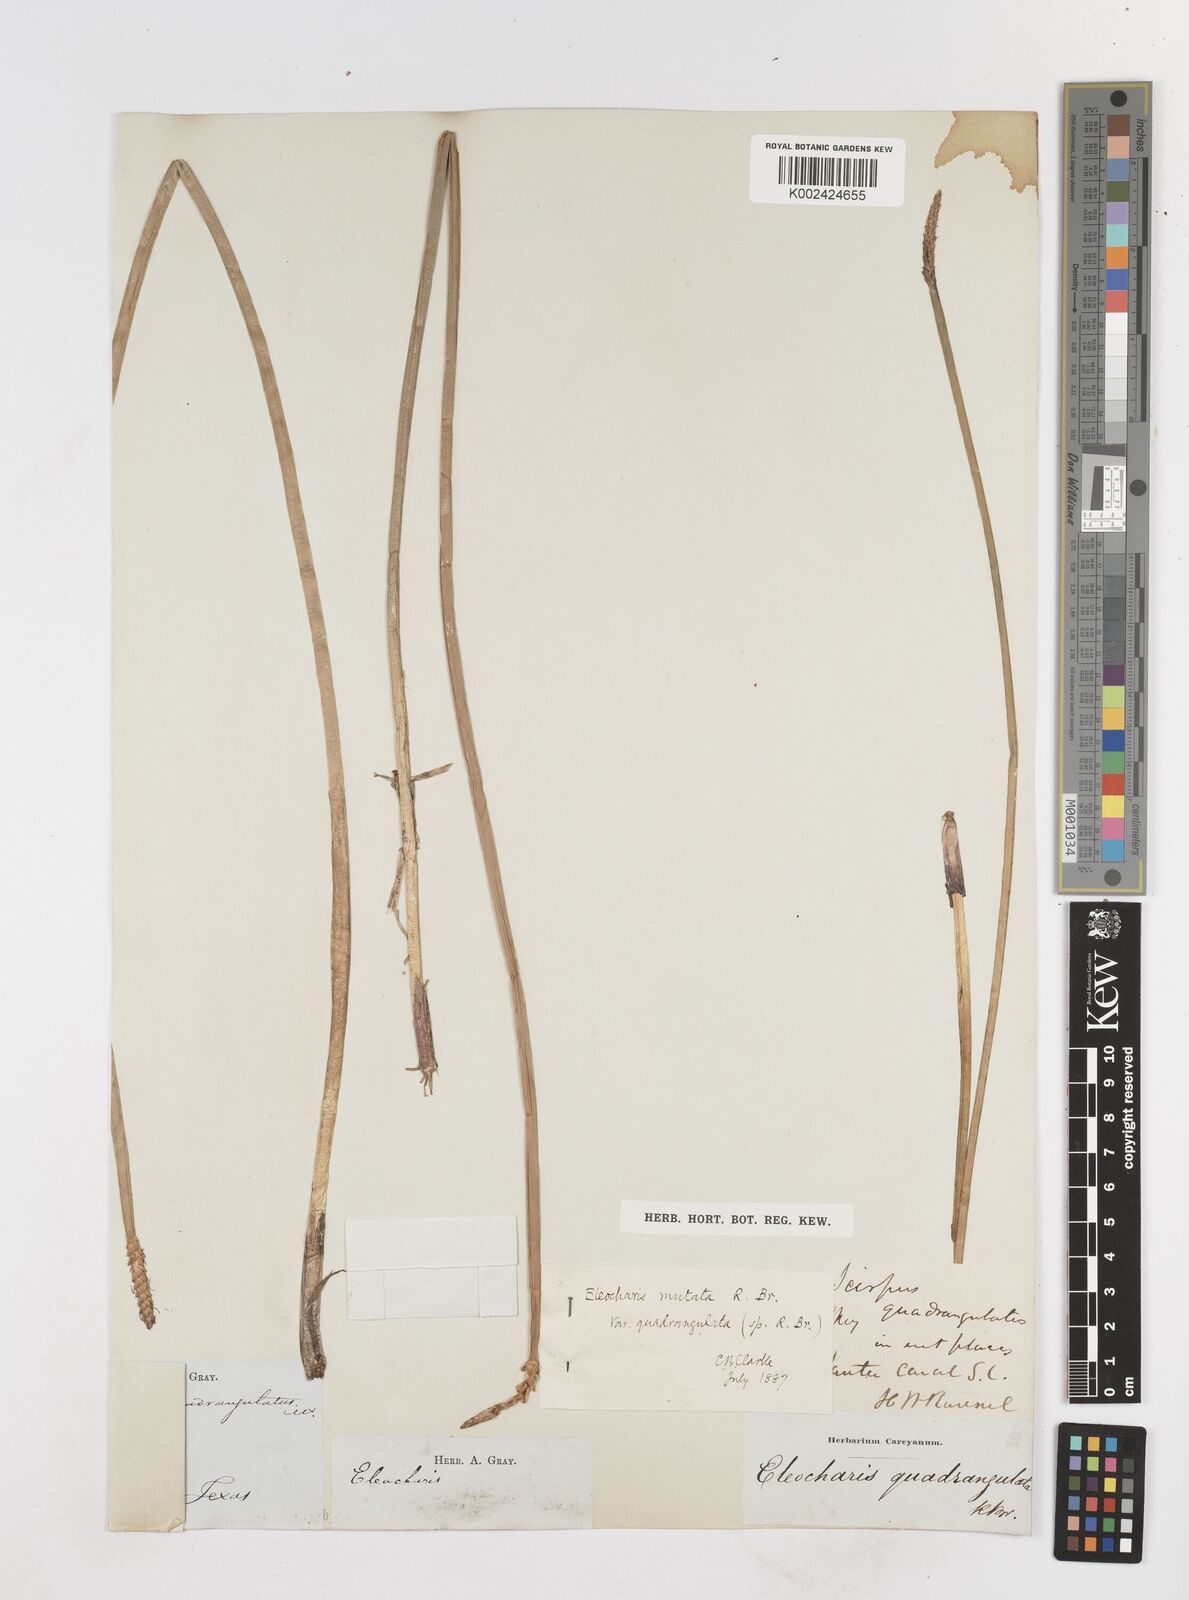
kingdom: Plantae
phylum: Tracheophyta
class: Liliopsida
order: Poales
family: Cyperaceae
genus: Eleocharis
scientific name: Eleocharis quadrangulata
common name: Square-stem spike-rush
